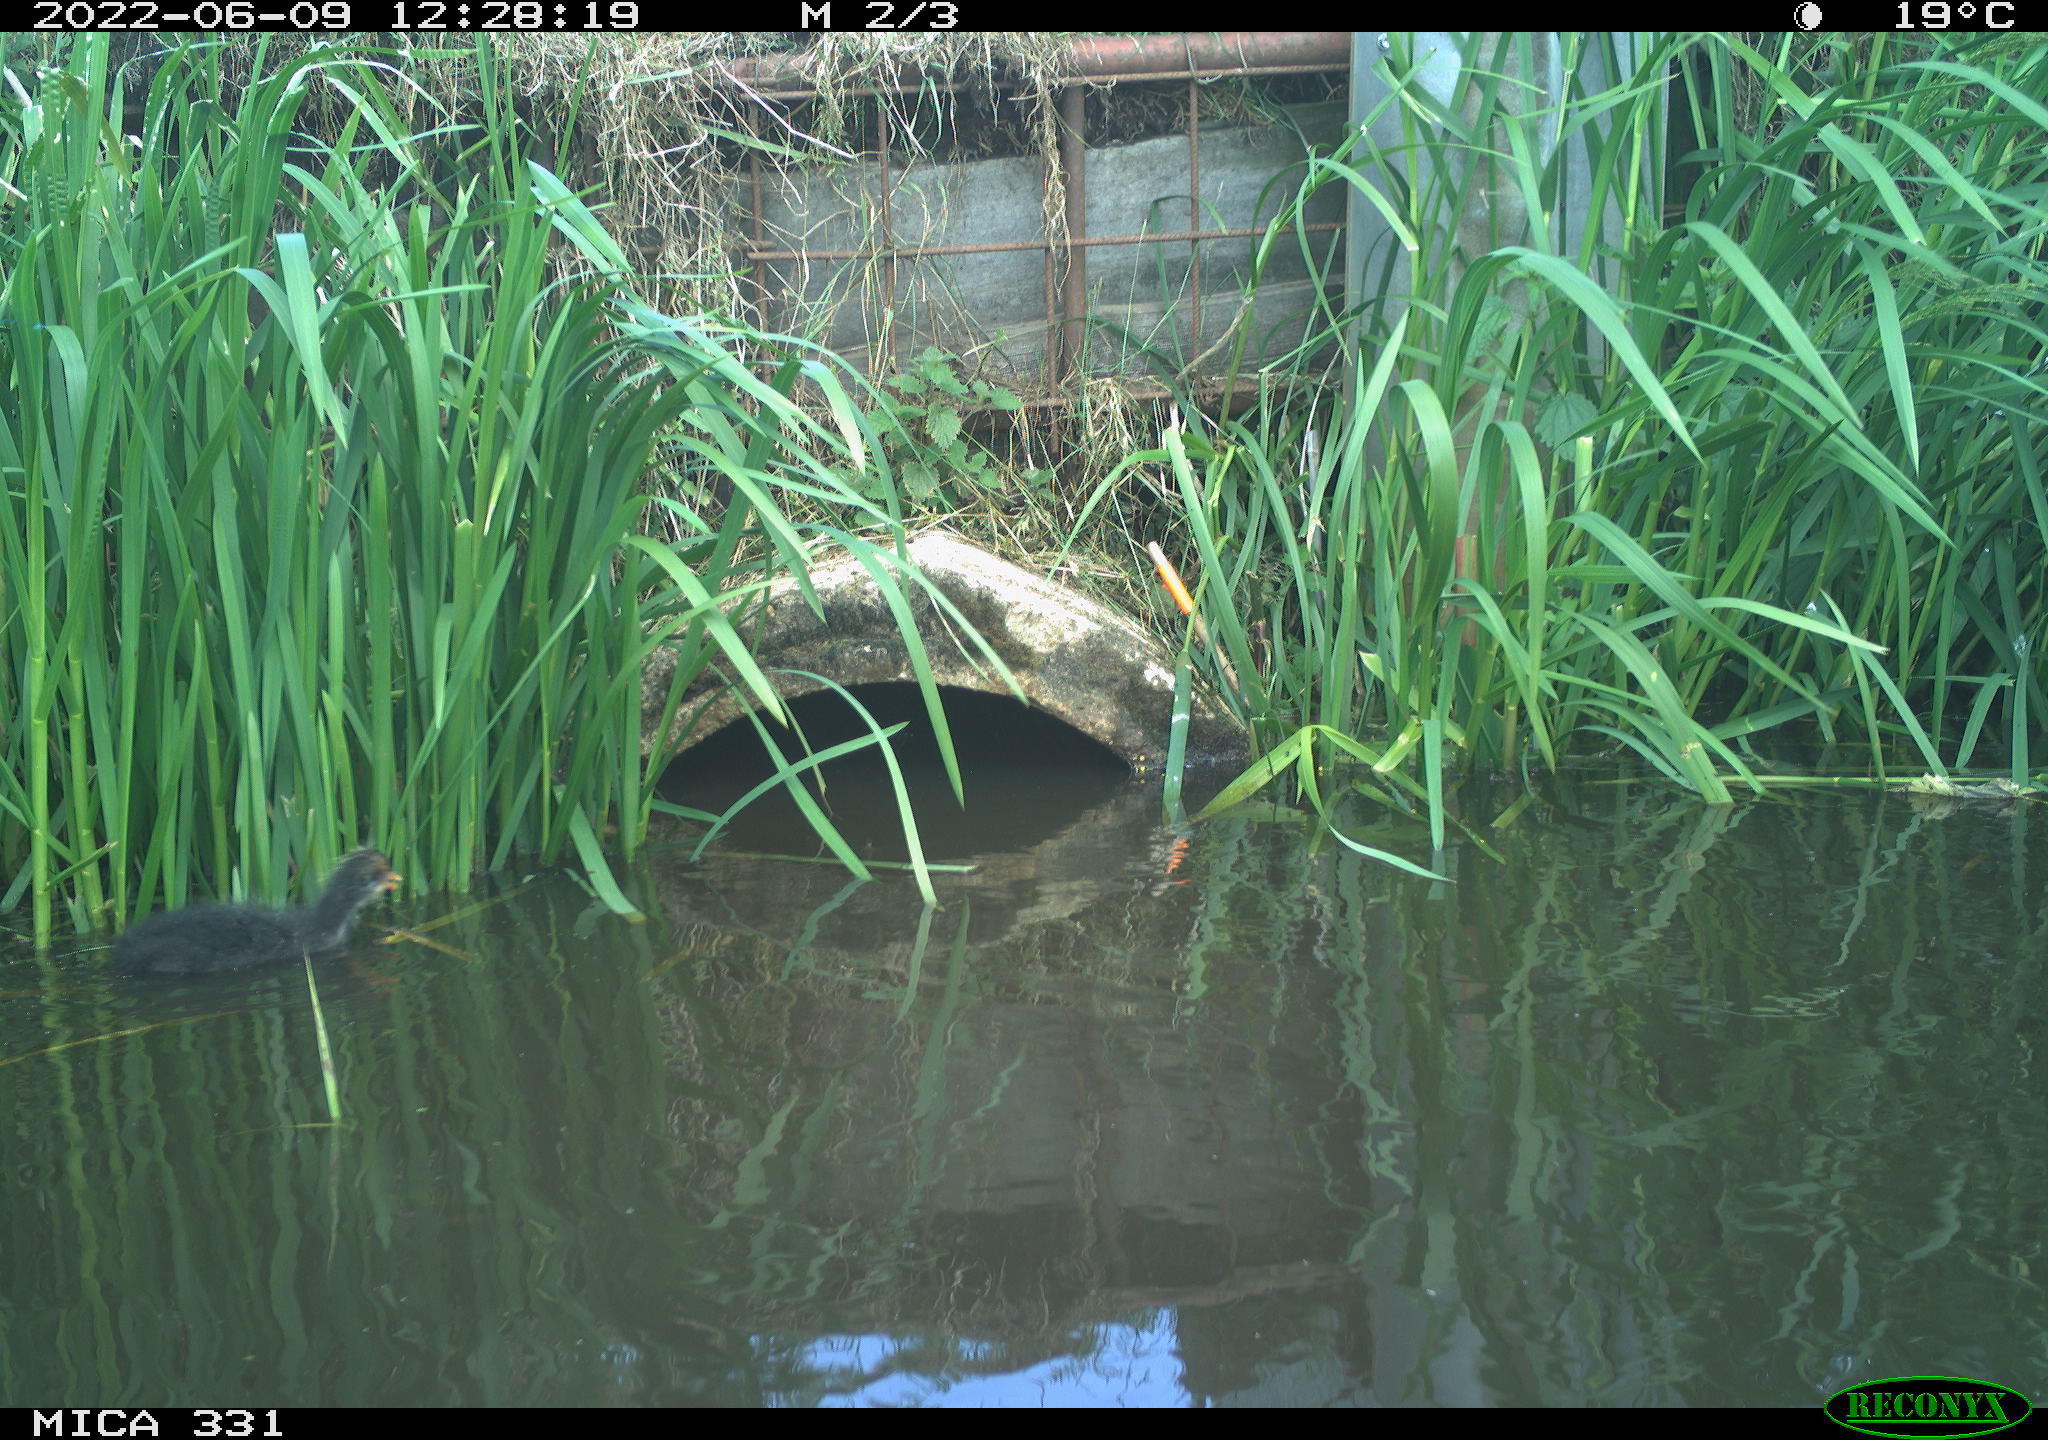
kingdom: Animalia
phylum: Chordata
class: Aves
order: Gruiformes
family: Rallidae
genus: Fulica
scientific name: Fulica atra
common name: Eurasian coot
